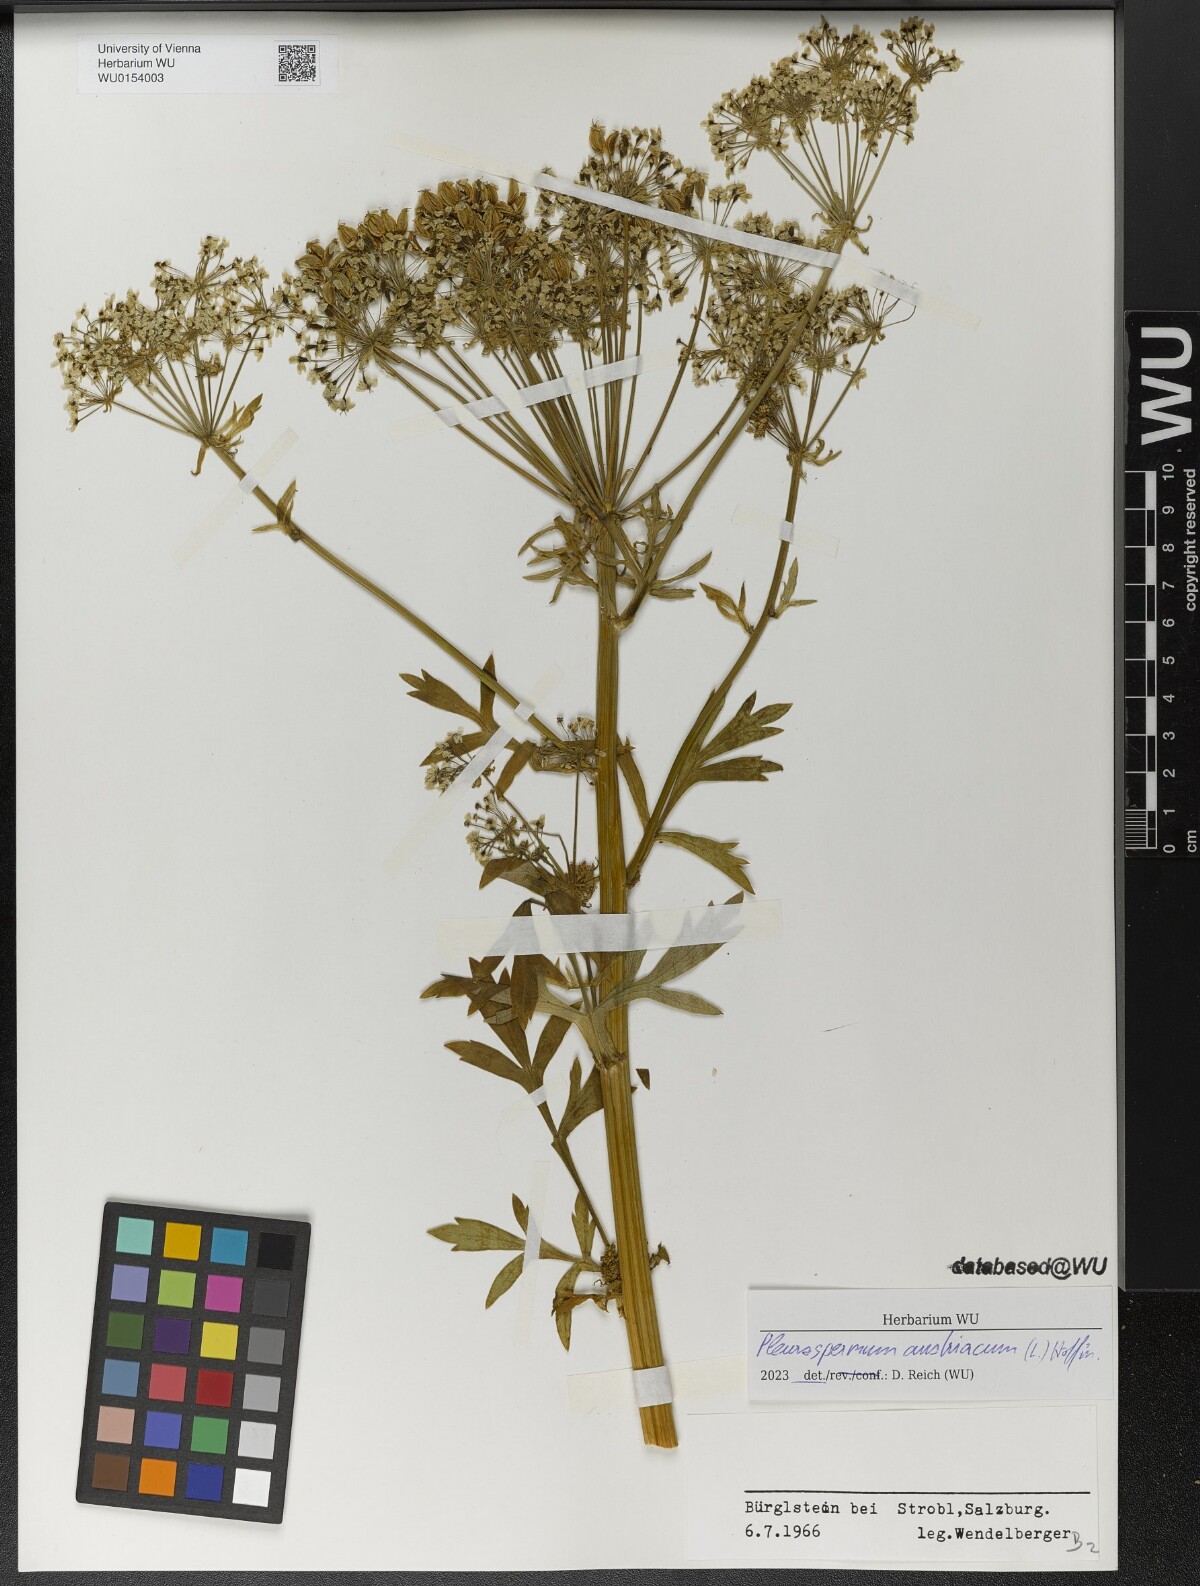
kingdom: Plantae
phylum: Tracheophyta
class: Magnoliopsida
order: Apiales
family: Apiaceae
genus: Pleurospermum
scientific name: Pleurospermum austriacum
